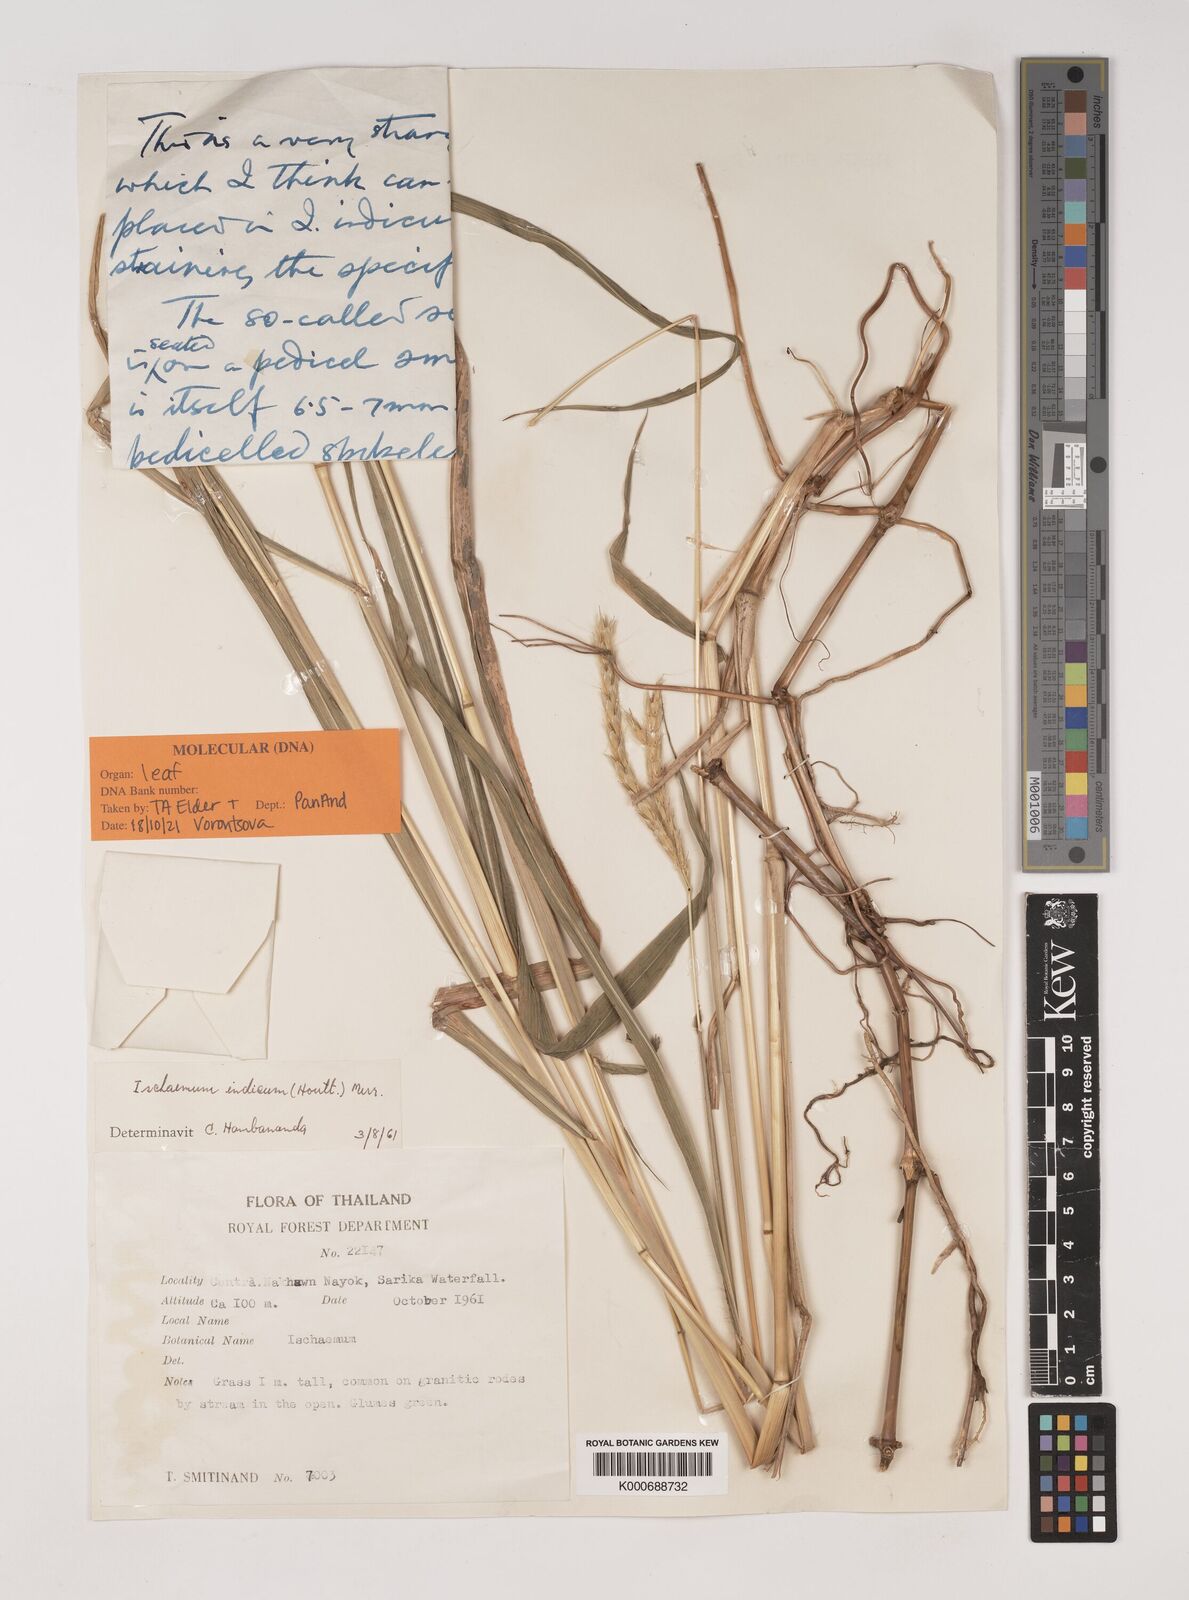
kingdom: Plantae
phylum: Tracheophyta
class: Liliopsida
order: Poales
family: Poaceae
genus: Polytrias
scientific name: Polytrias indica
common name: Indian murainagrass
